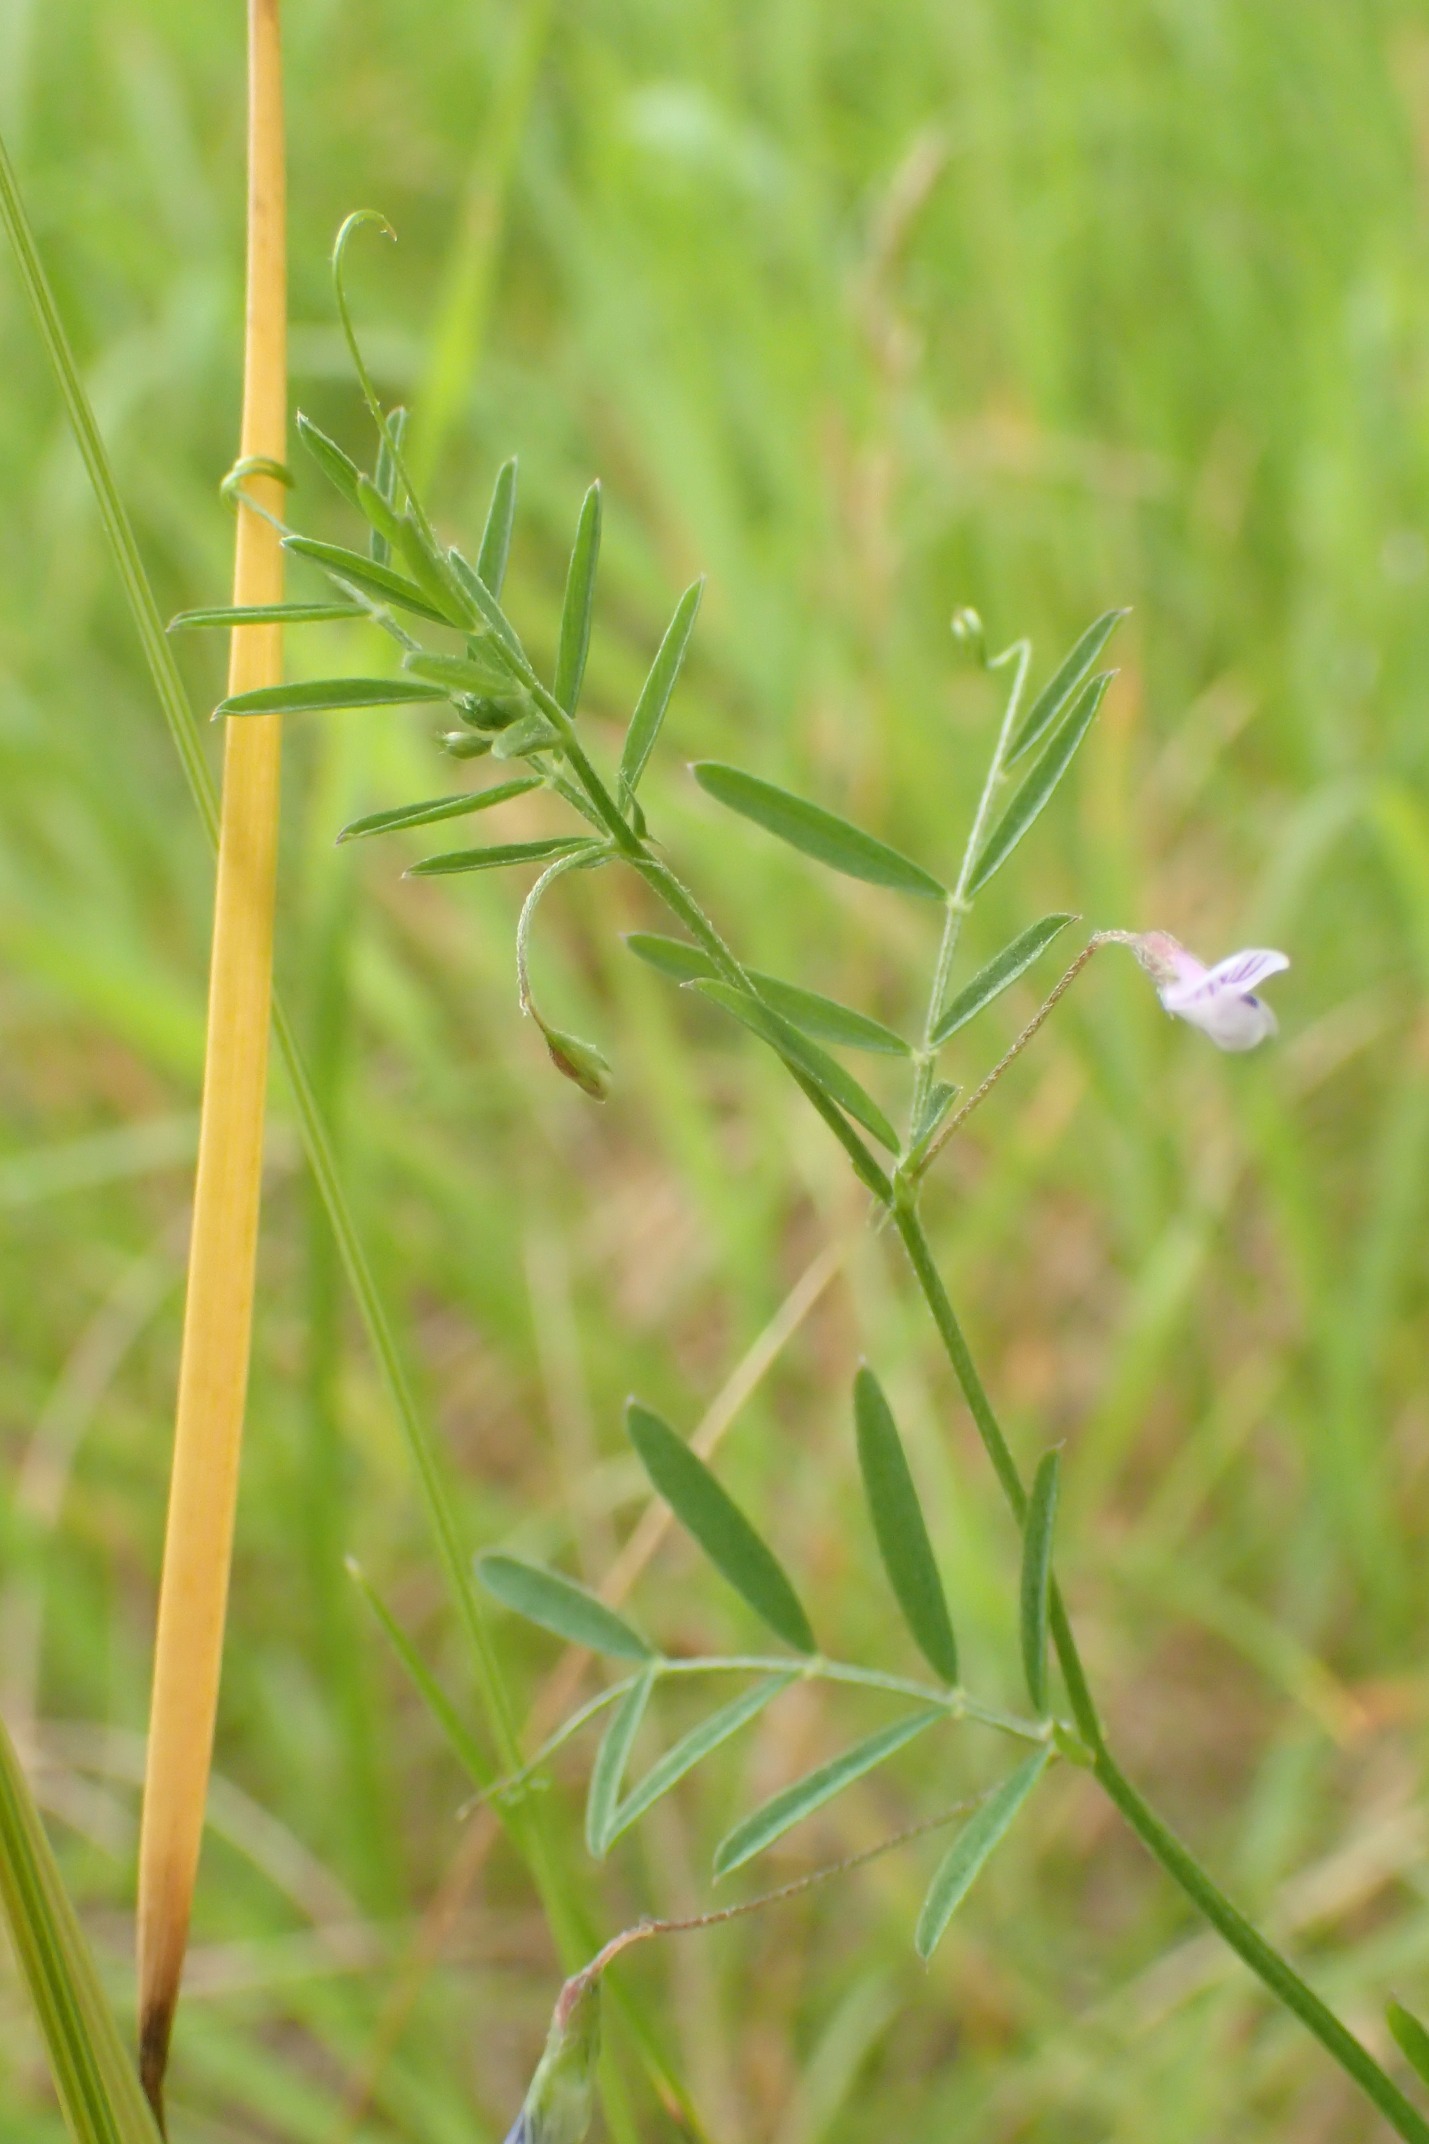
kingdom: Plantae
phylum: Tracheophyta
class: Magnoliopsida
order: Fabales
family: Fabaceae
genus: Vicia
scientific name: Vicia tetrasperma
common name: Tadder-vikke
